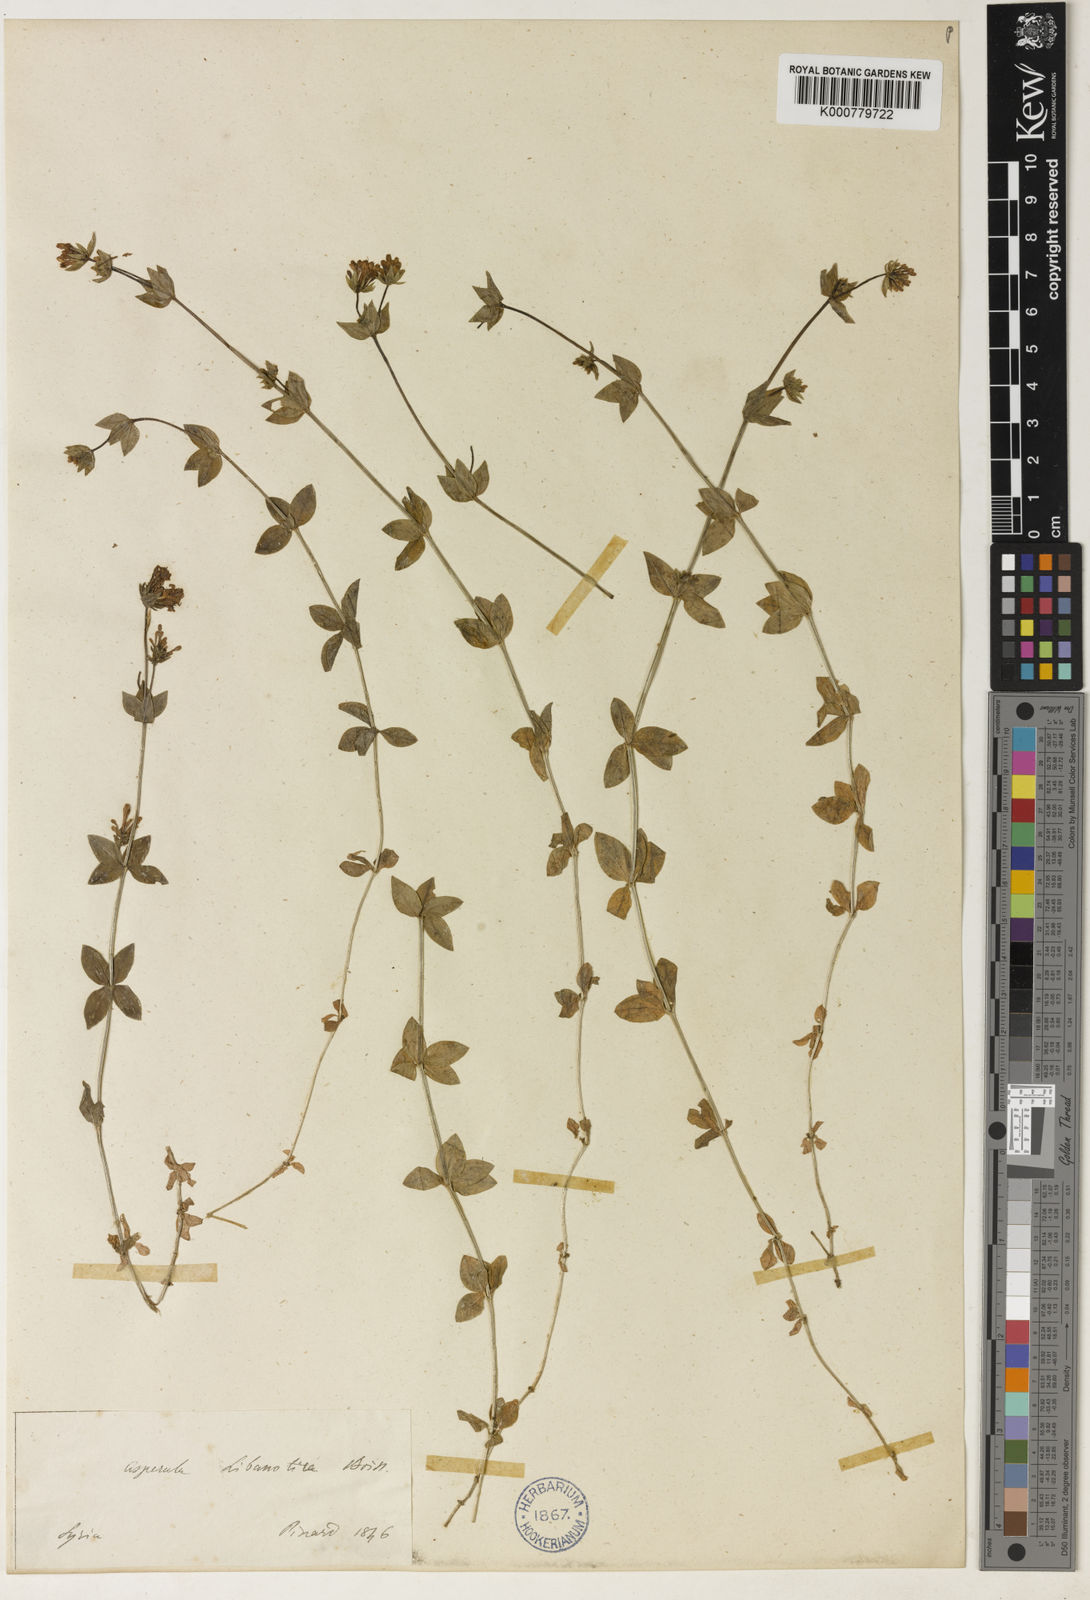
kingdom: Plantae
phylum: Tracheophyta
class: Magnoliopsida
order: Gentianales
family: Rubiaceae
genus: Asperula
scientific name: Asperula libanotica
